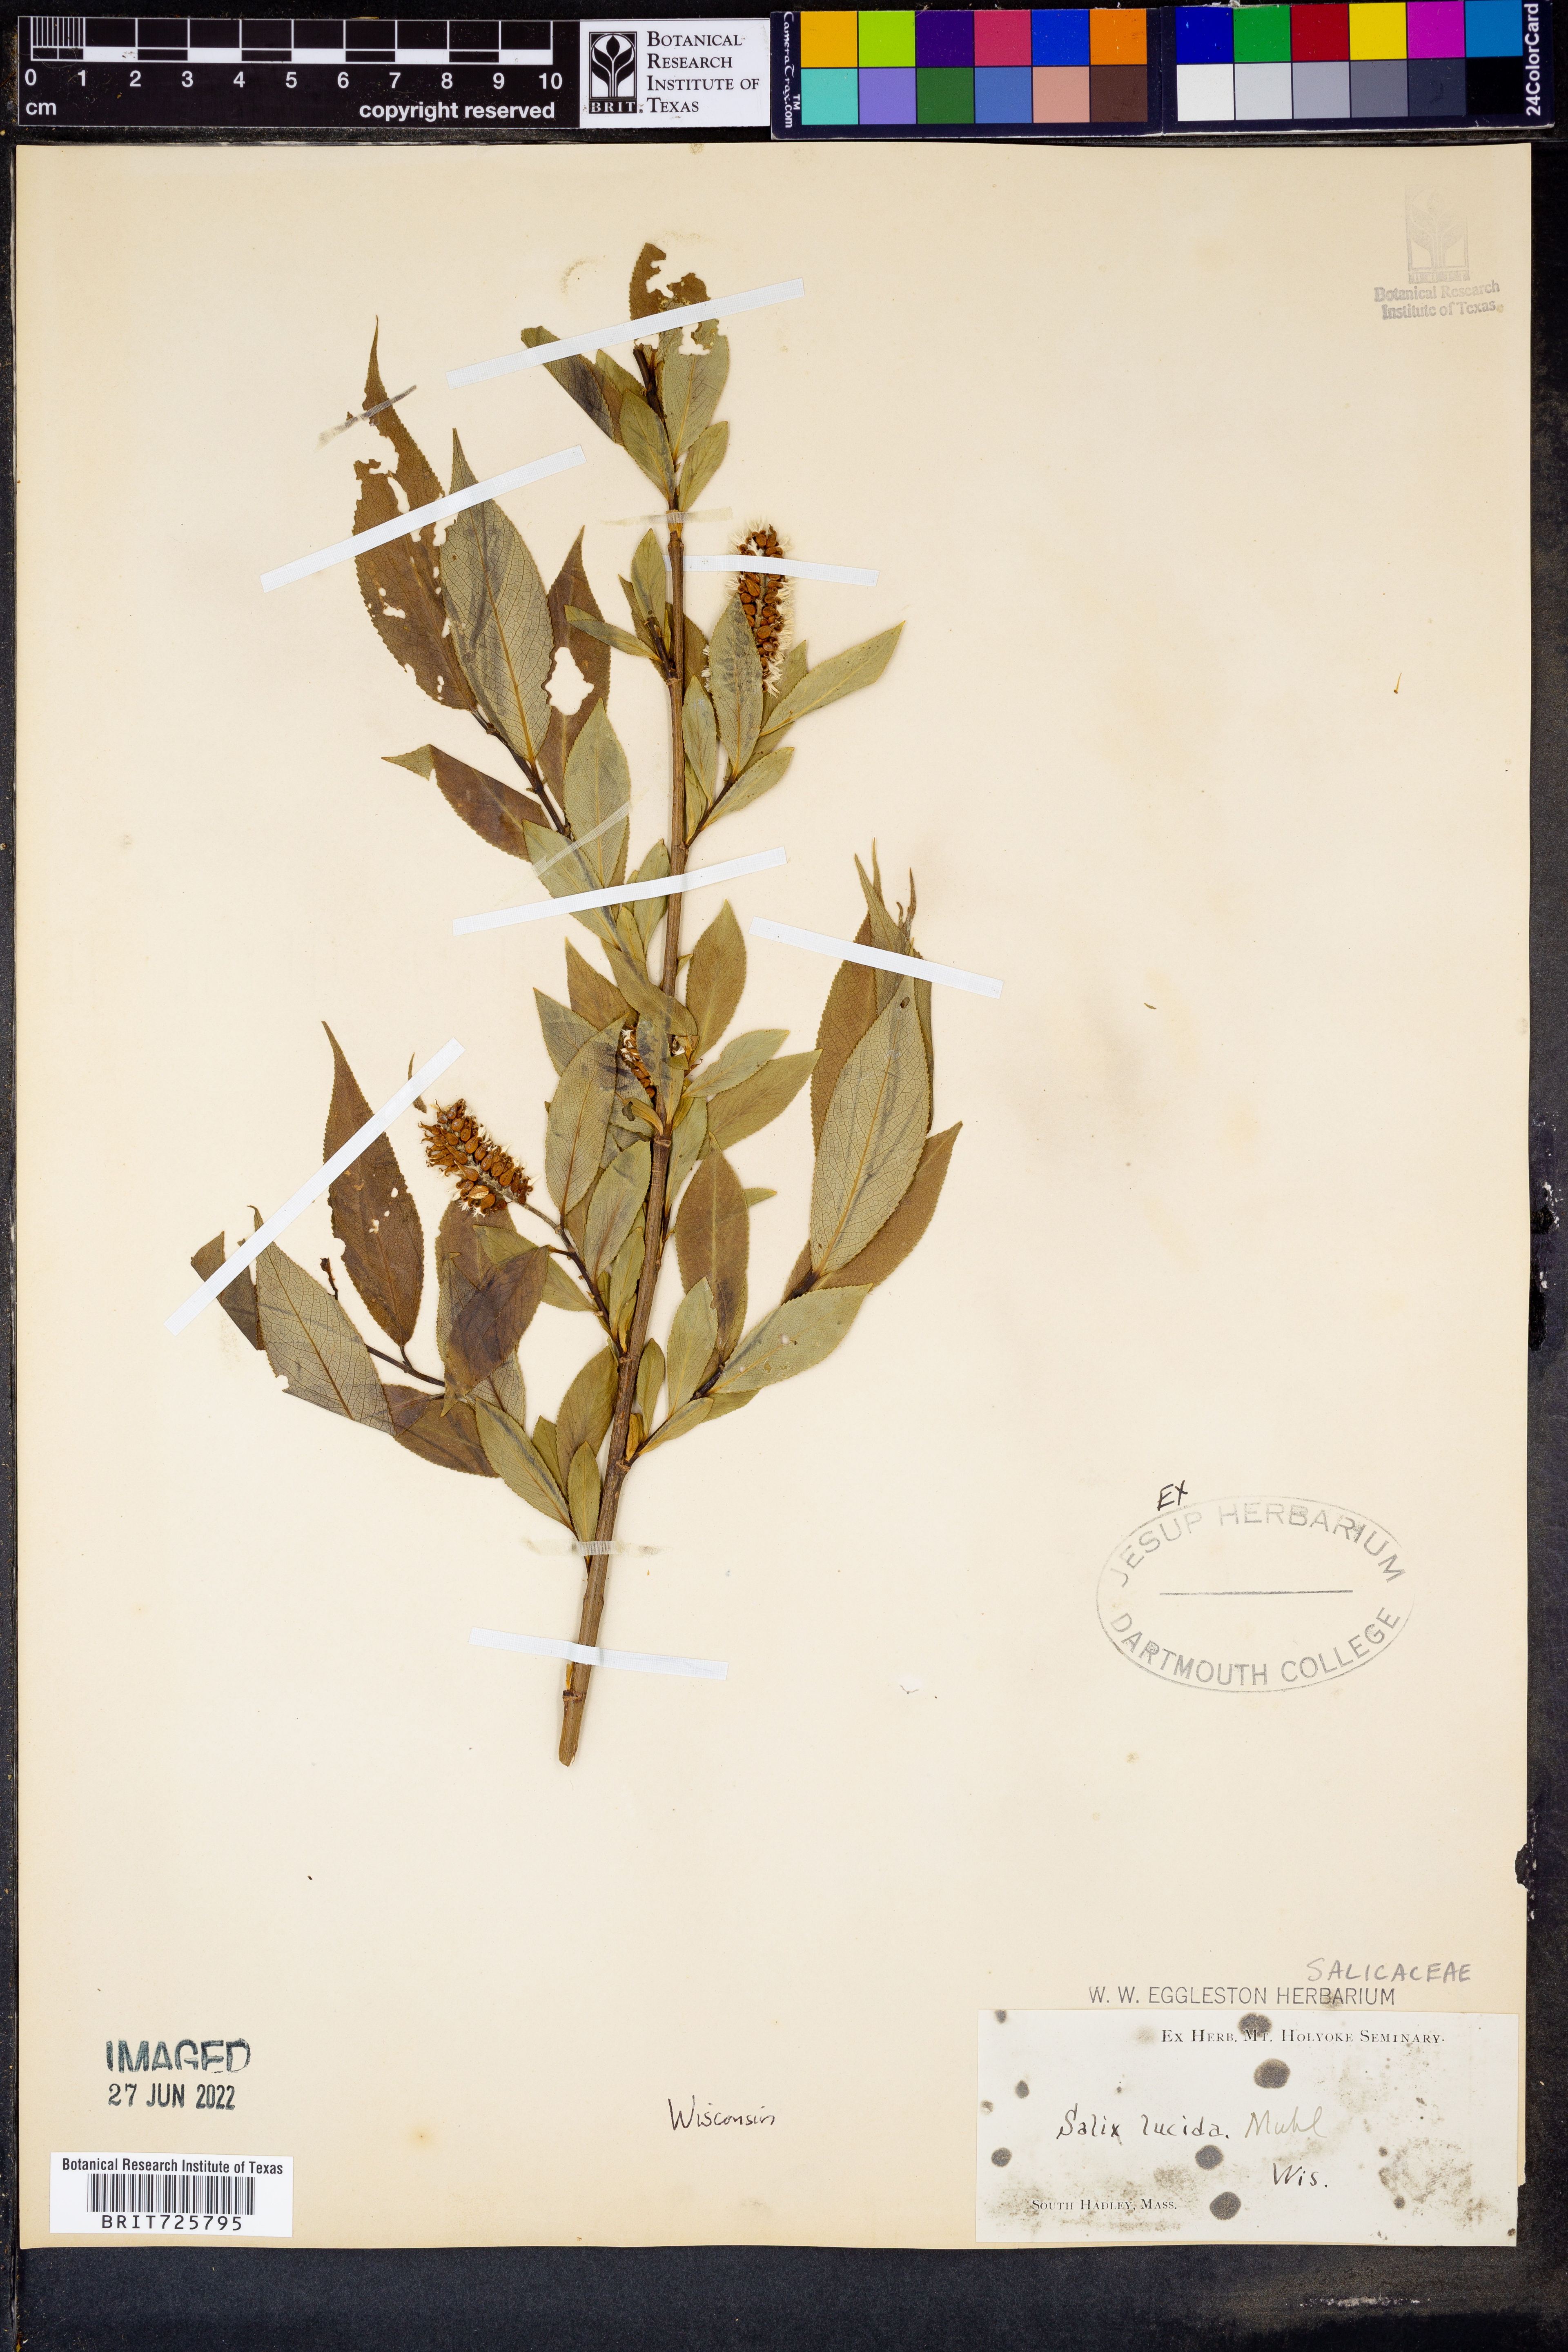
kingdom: Plantae
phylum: Tracheophyta
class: Magnoliopsida
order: Malpighiales
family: Salicaceae
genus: Salix
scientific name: Salix lucida
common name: Shining willow
